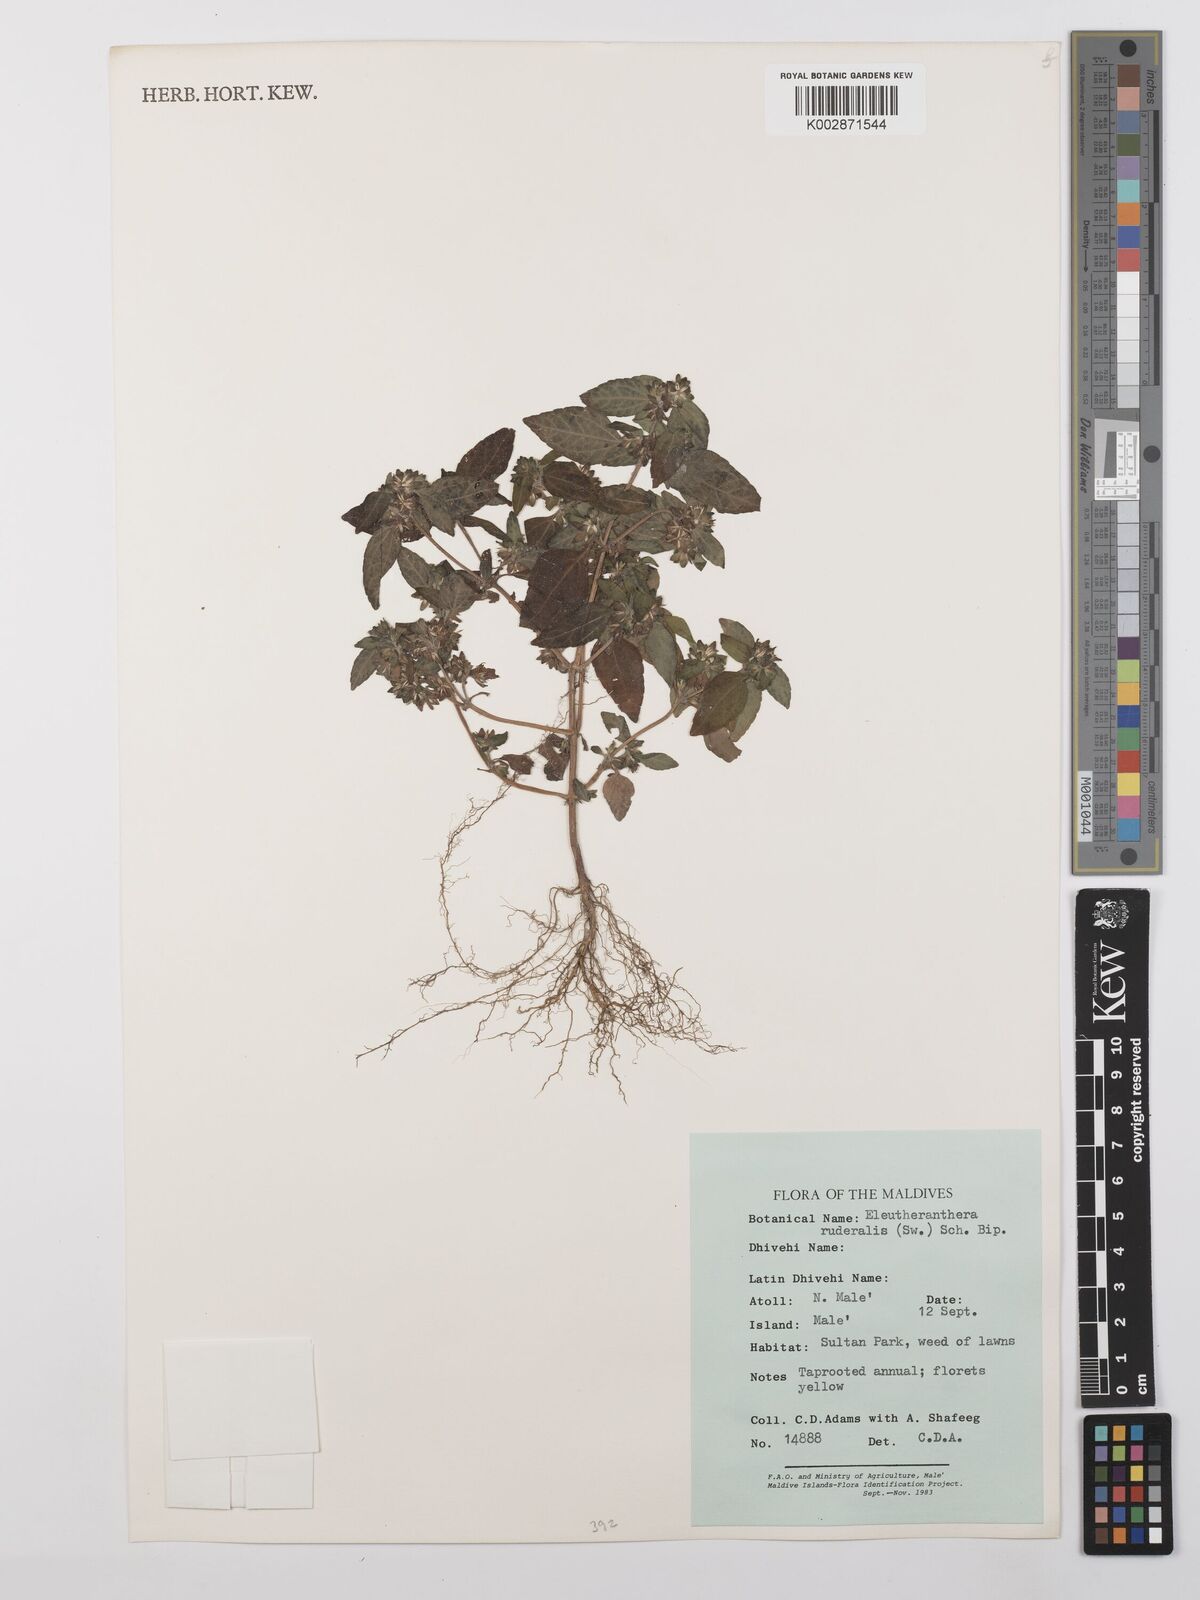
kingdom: Plantae
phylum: Tracheophyta
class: Magnoliopsida
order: Asterales
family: Asteraceae
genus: Eleutheranthera
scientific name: Eleutheranthera ruderalis
